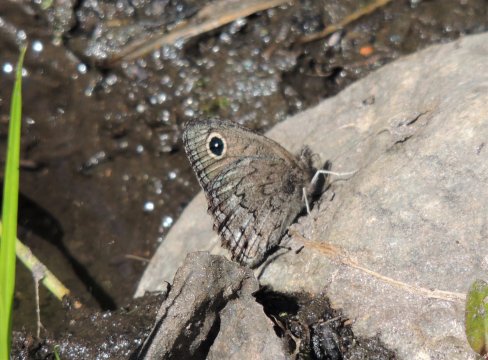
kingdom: Animalia
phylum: Arthropoda
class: Insecta
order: Lepidoptera
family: Nymphalidae
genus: Cercyonis
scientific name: Cercyonis oetus
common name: Small Wood-Nymph
